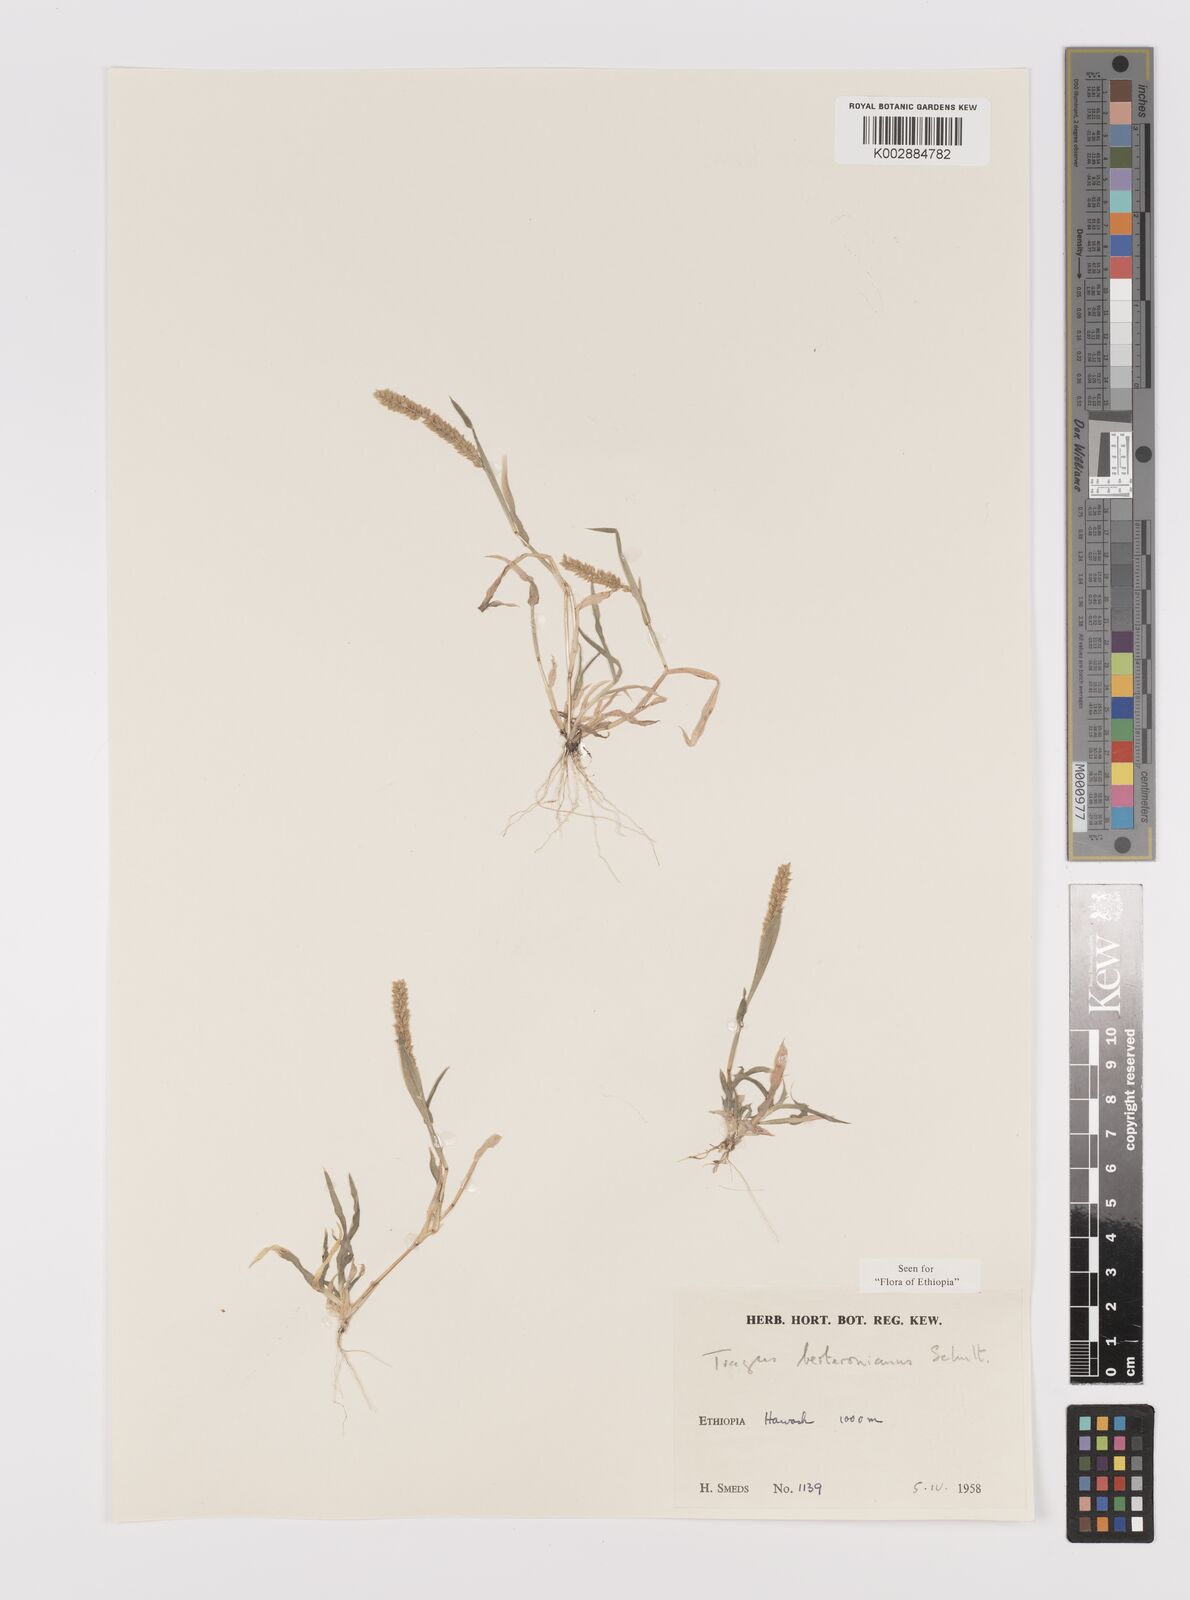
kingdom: Plantae
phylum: Tracheophyta
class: Liliopsida
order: Poales
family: Poaceae
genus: Tragus
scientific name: Tragus berteronianus
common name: African bur-grass
